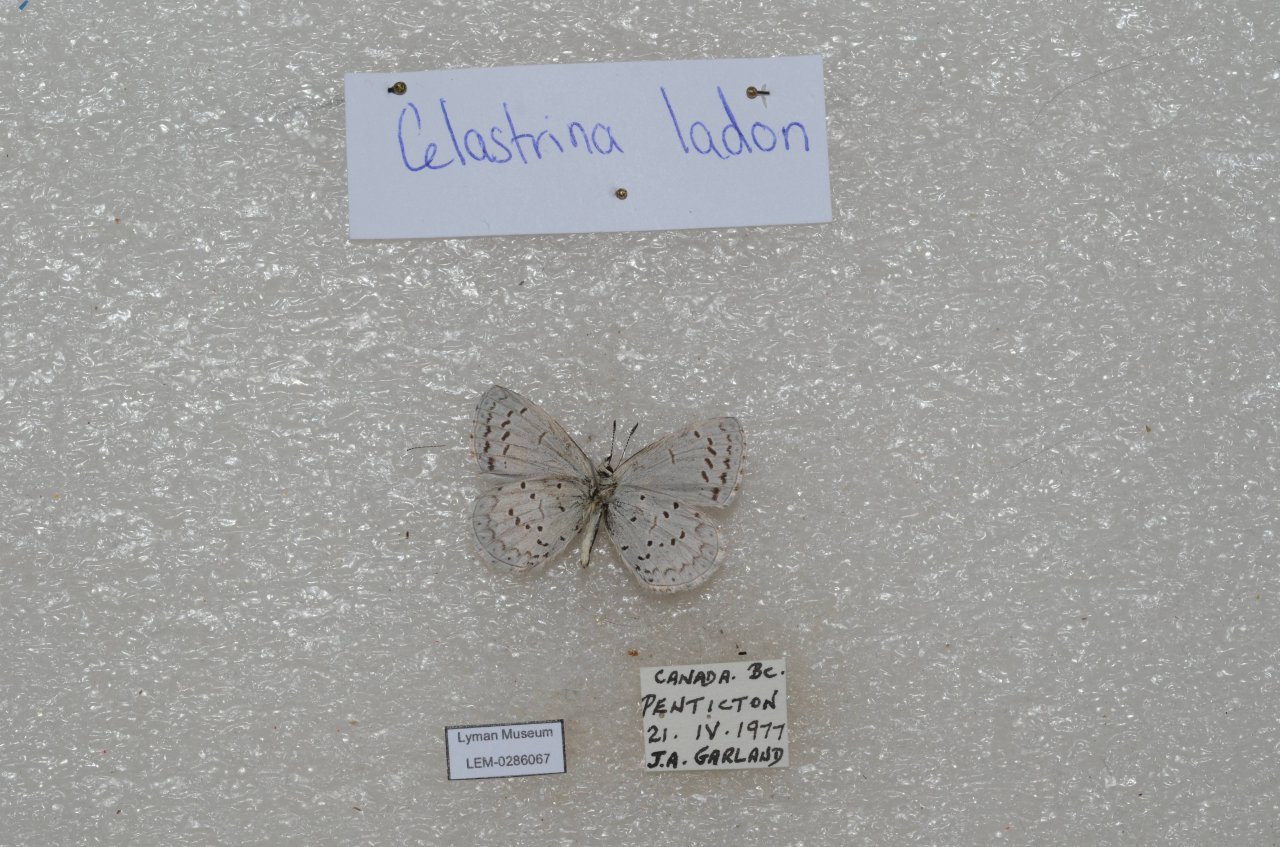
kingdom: Animalia
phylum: Arthropoda
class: Insecta
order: Lepidoptera
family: Lycaenidae
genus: Celastrina
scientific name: Celastrina
